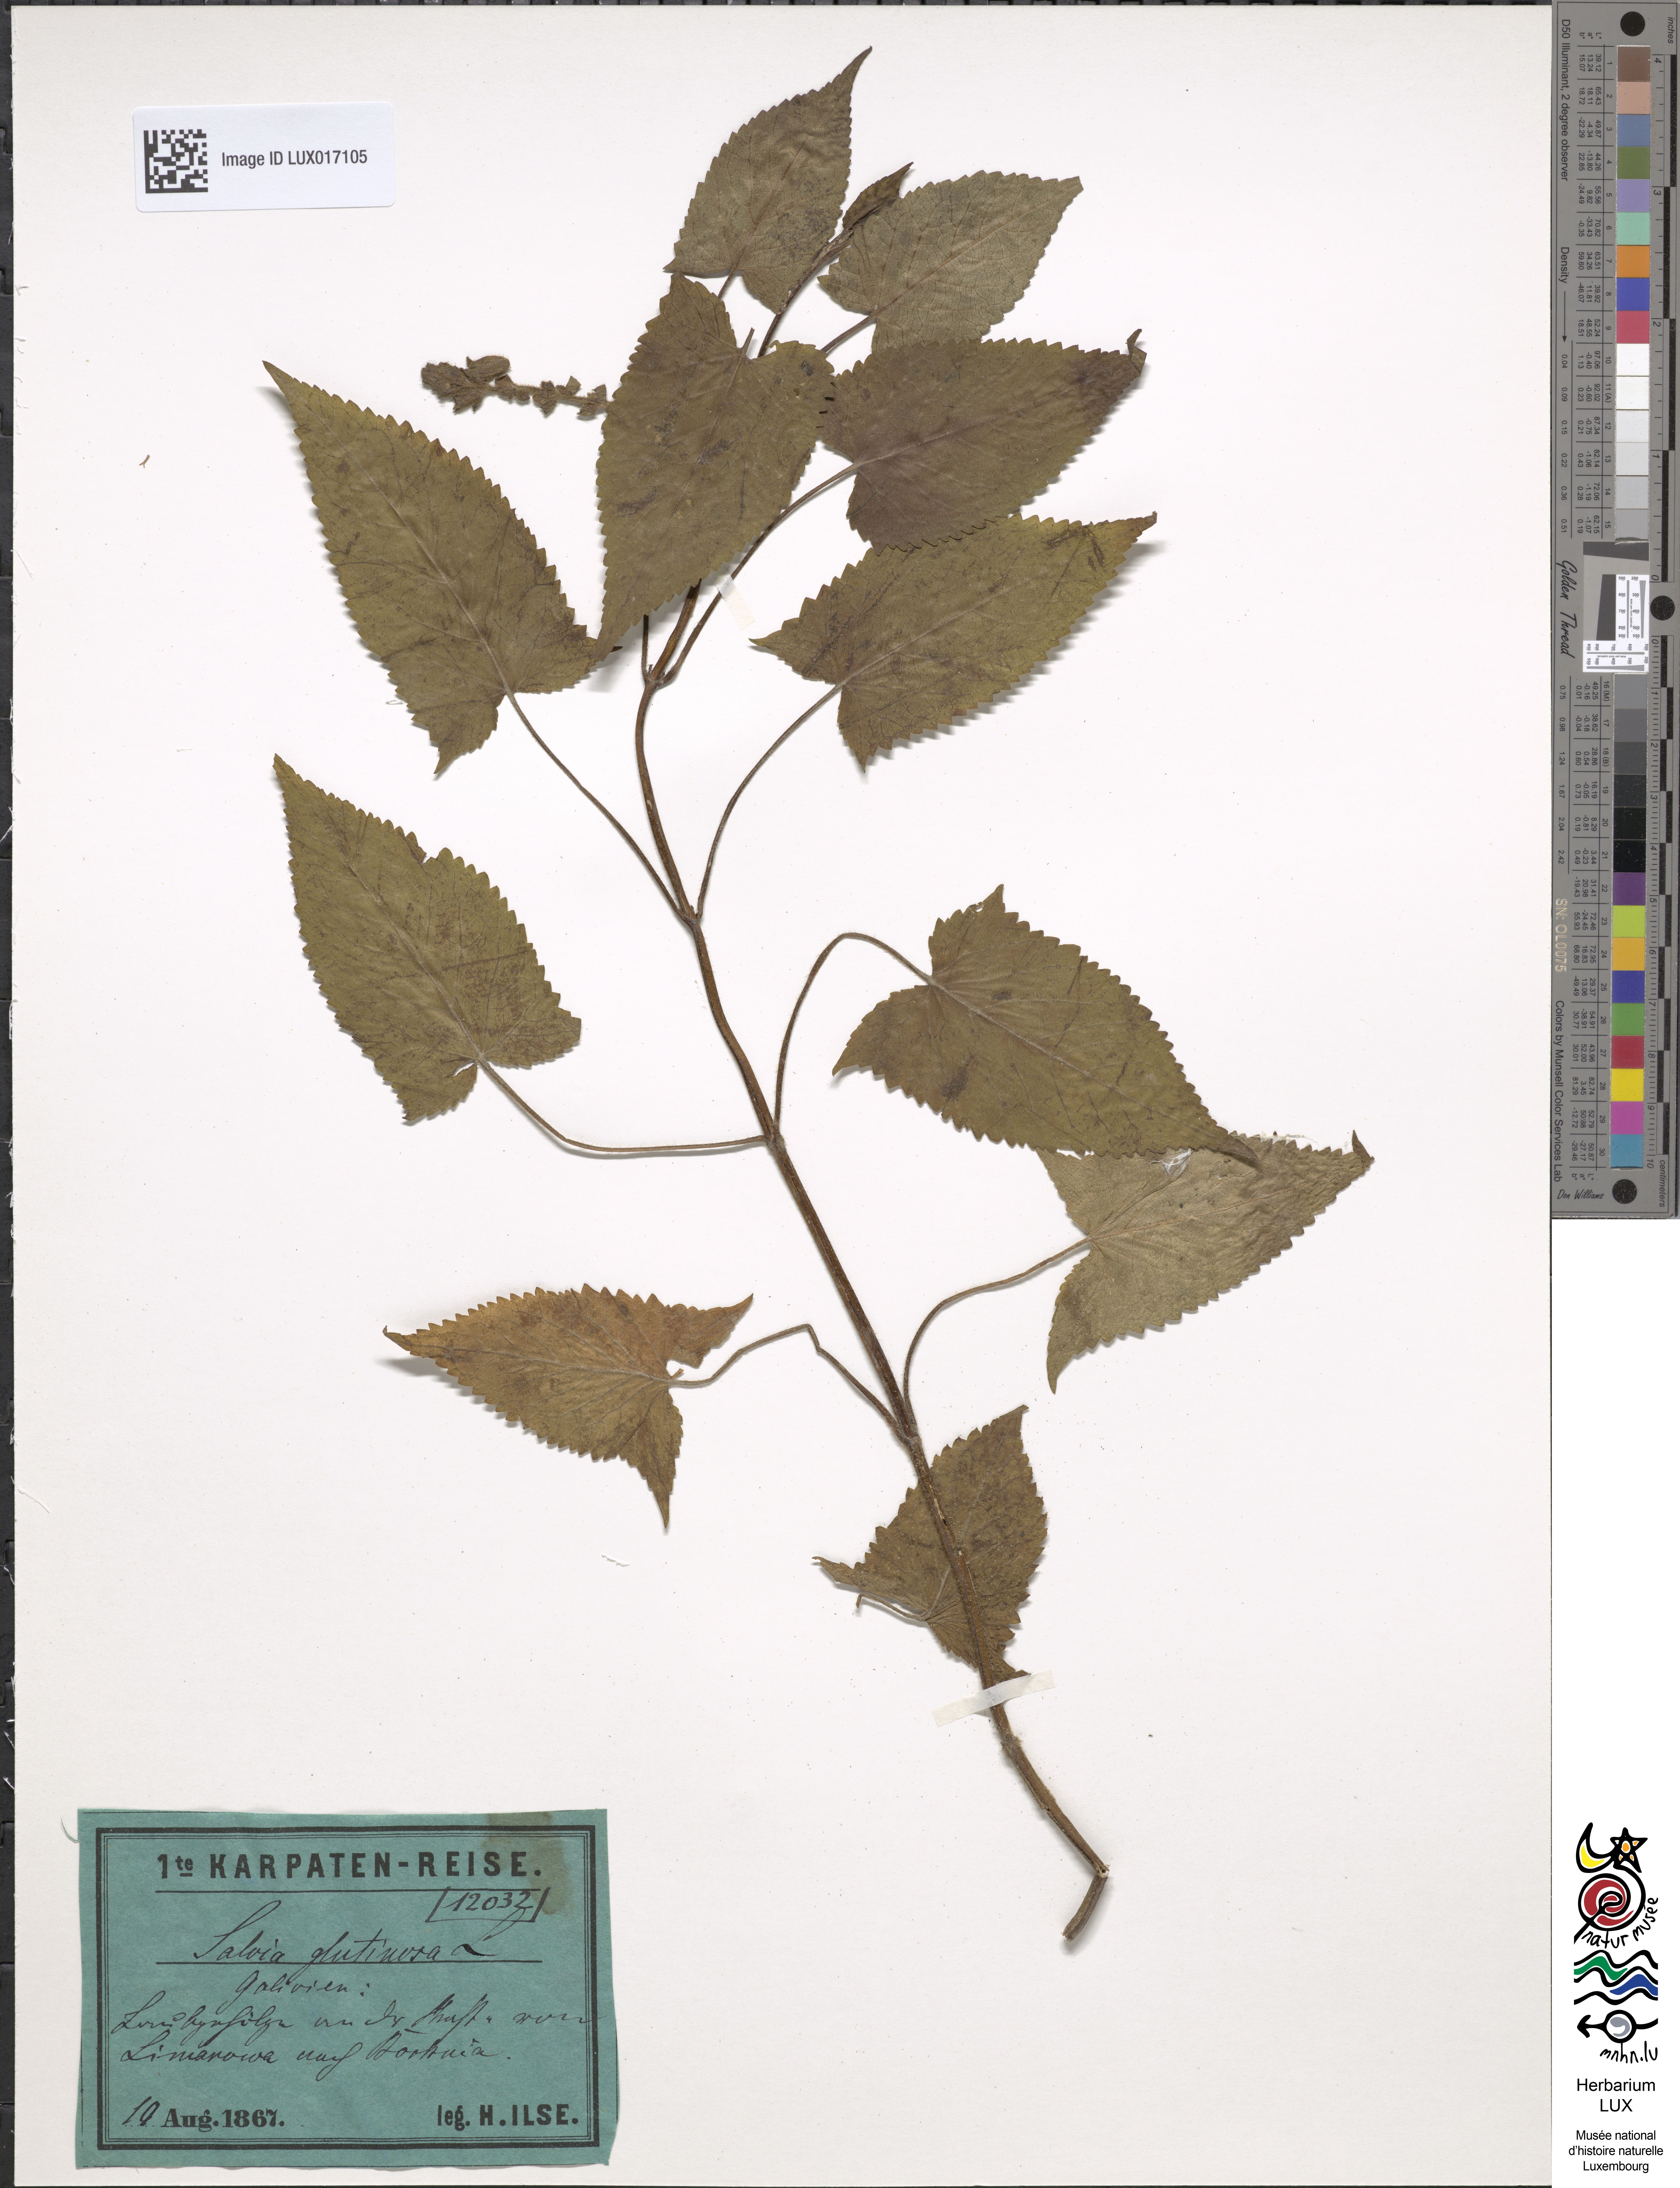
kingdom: Plantae
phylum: Tracheophyta
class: Magnoliopsida
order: Lamiales
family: Lamiaceae
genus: Salvia
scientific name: Salvia glutinosa
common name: Sticky clary
